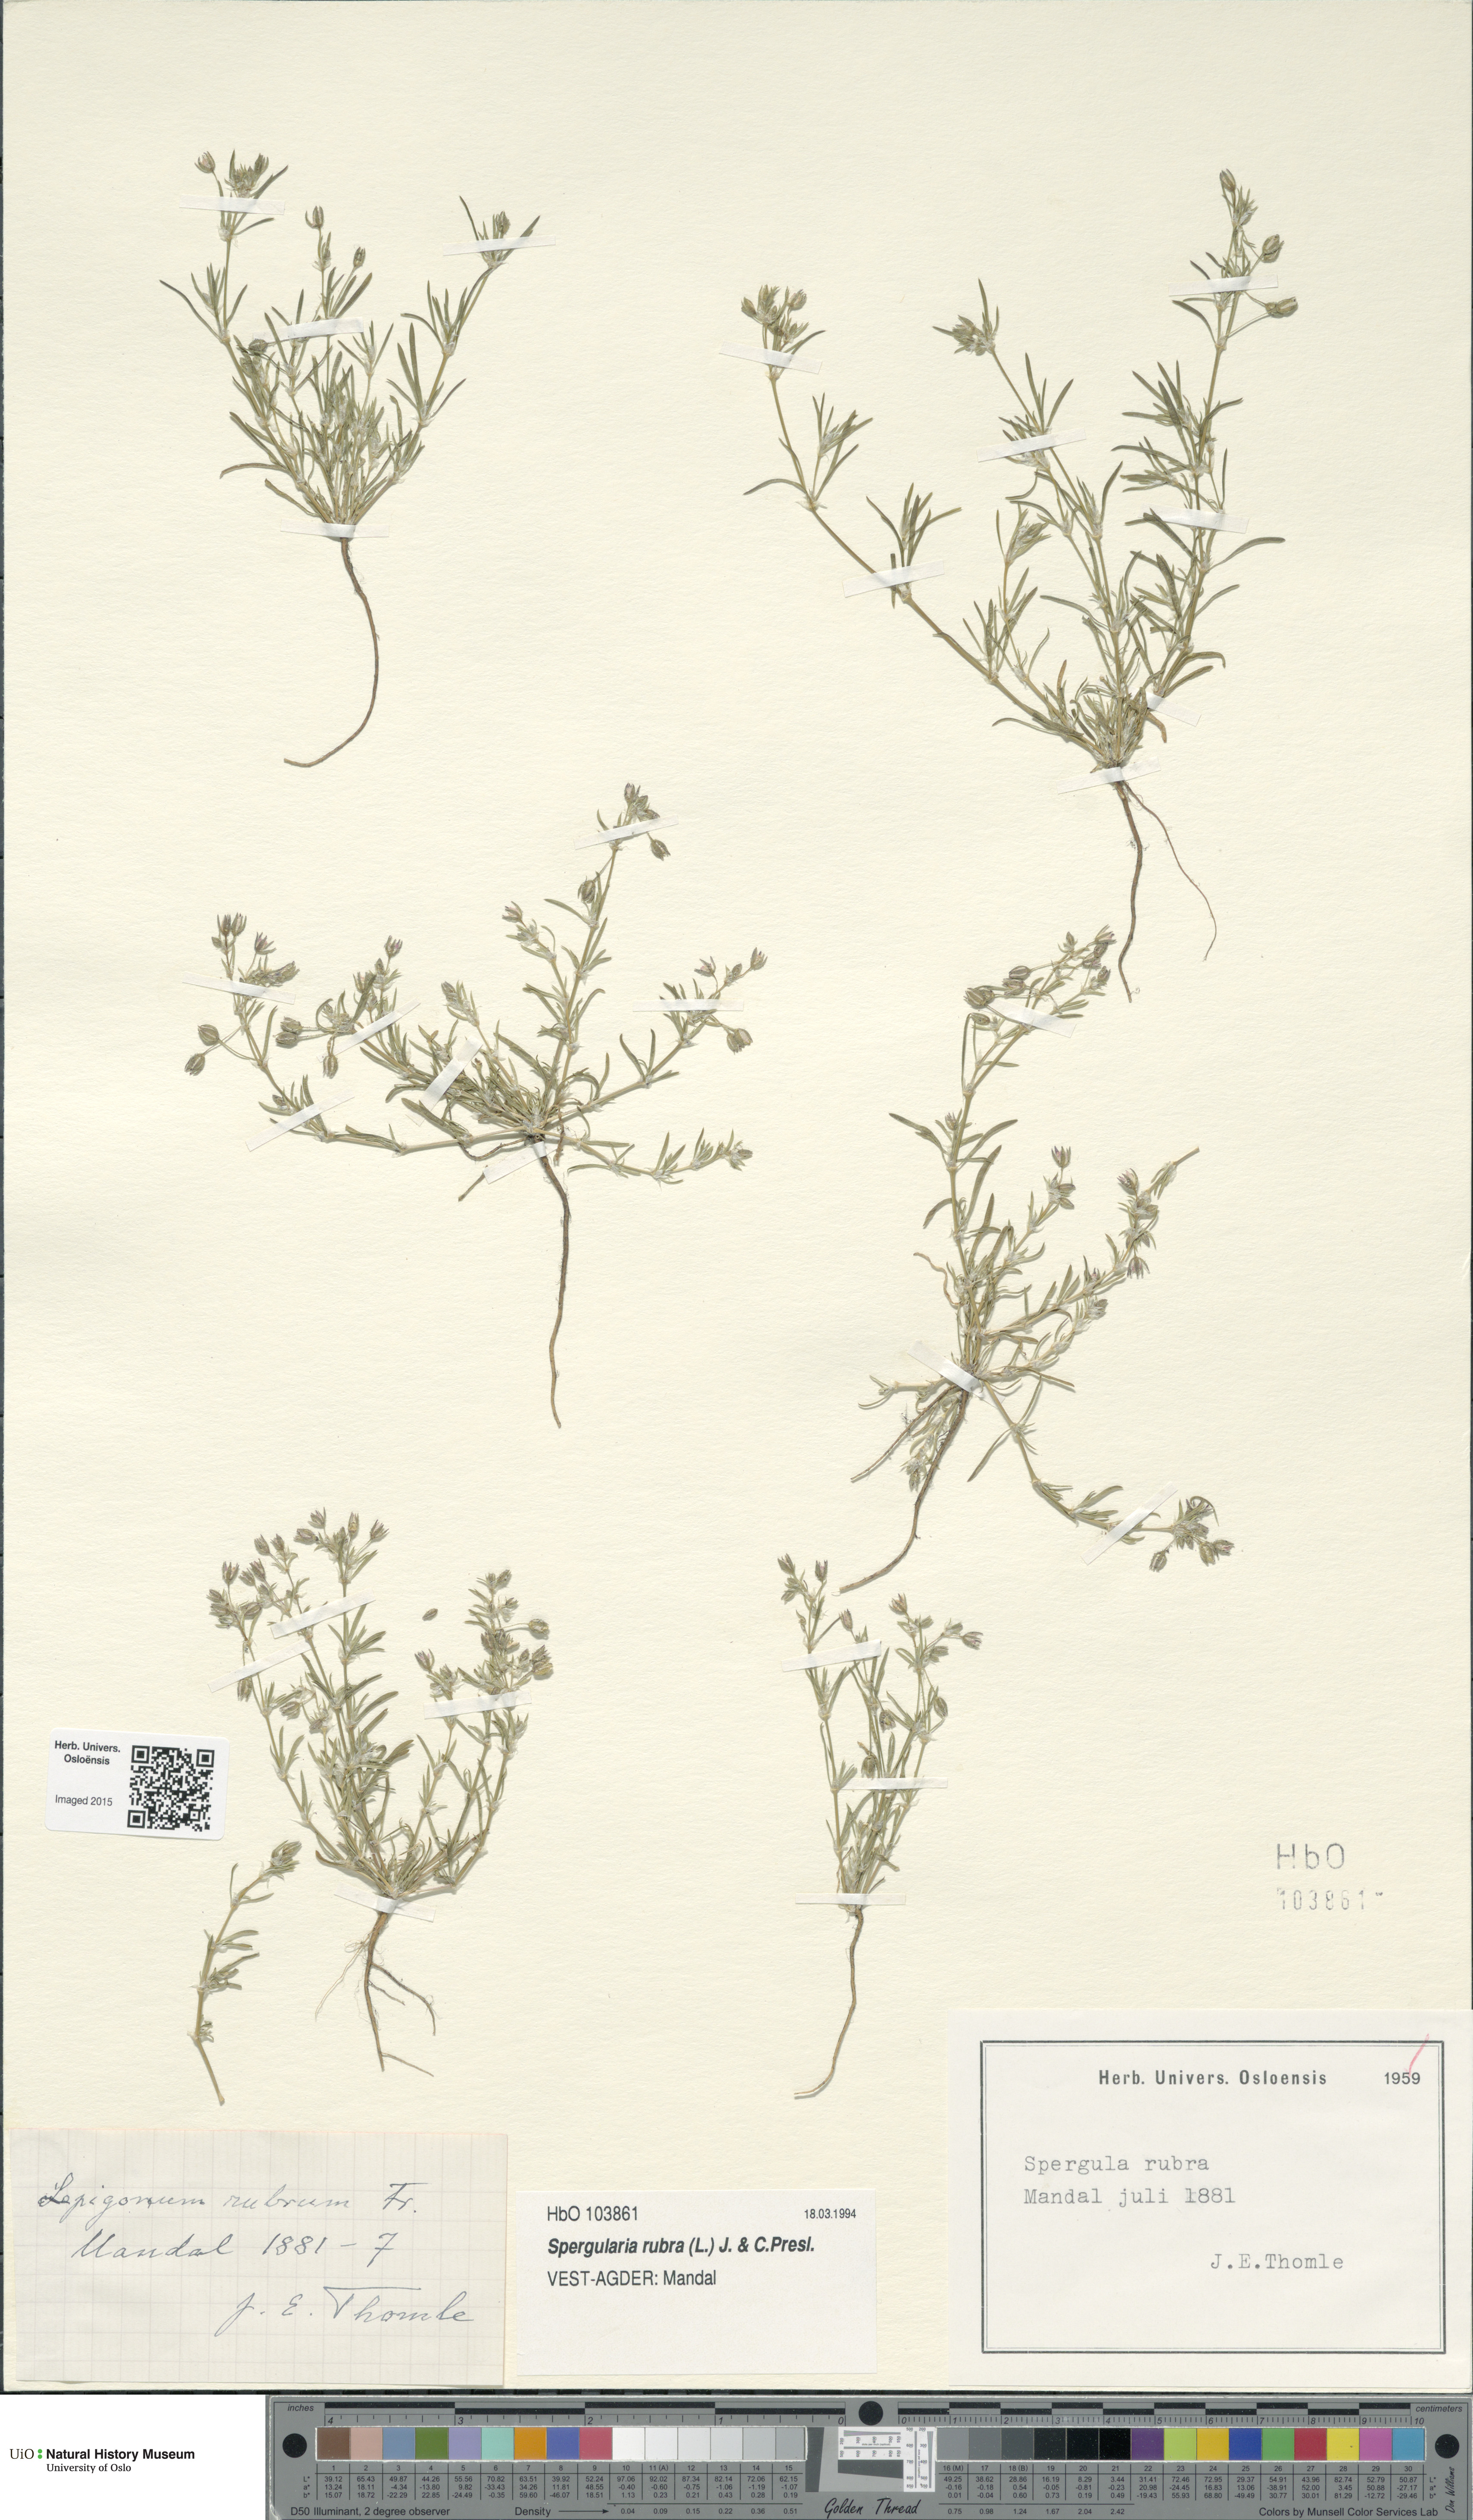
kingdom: Plantae
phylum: Tracheophyta
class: Magnoliopsida
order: Caryophyllales
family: Caryophyllaceae
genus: Spergularia
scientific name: Spergularia rubra
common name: Red sand-spurrey
